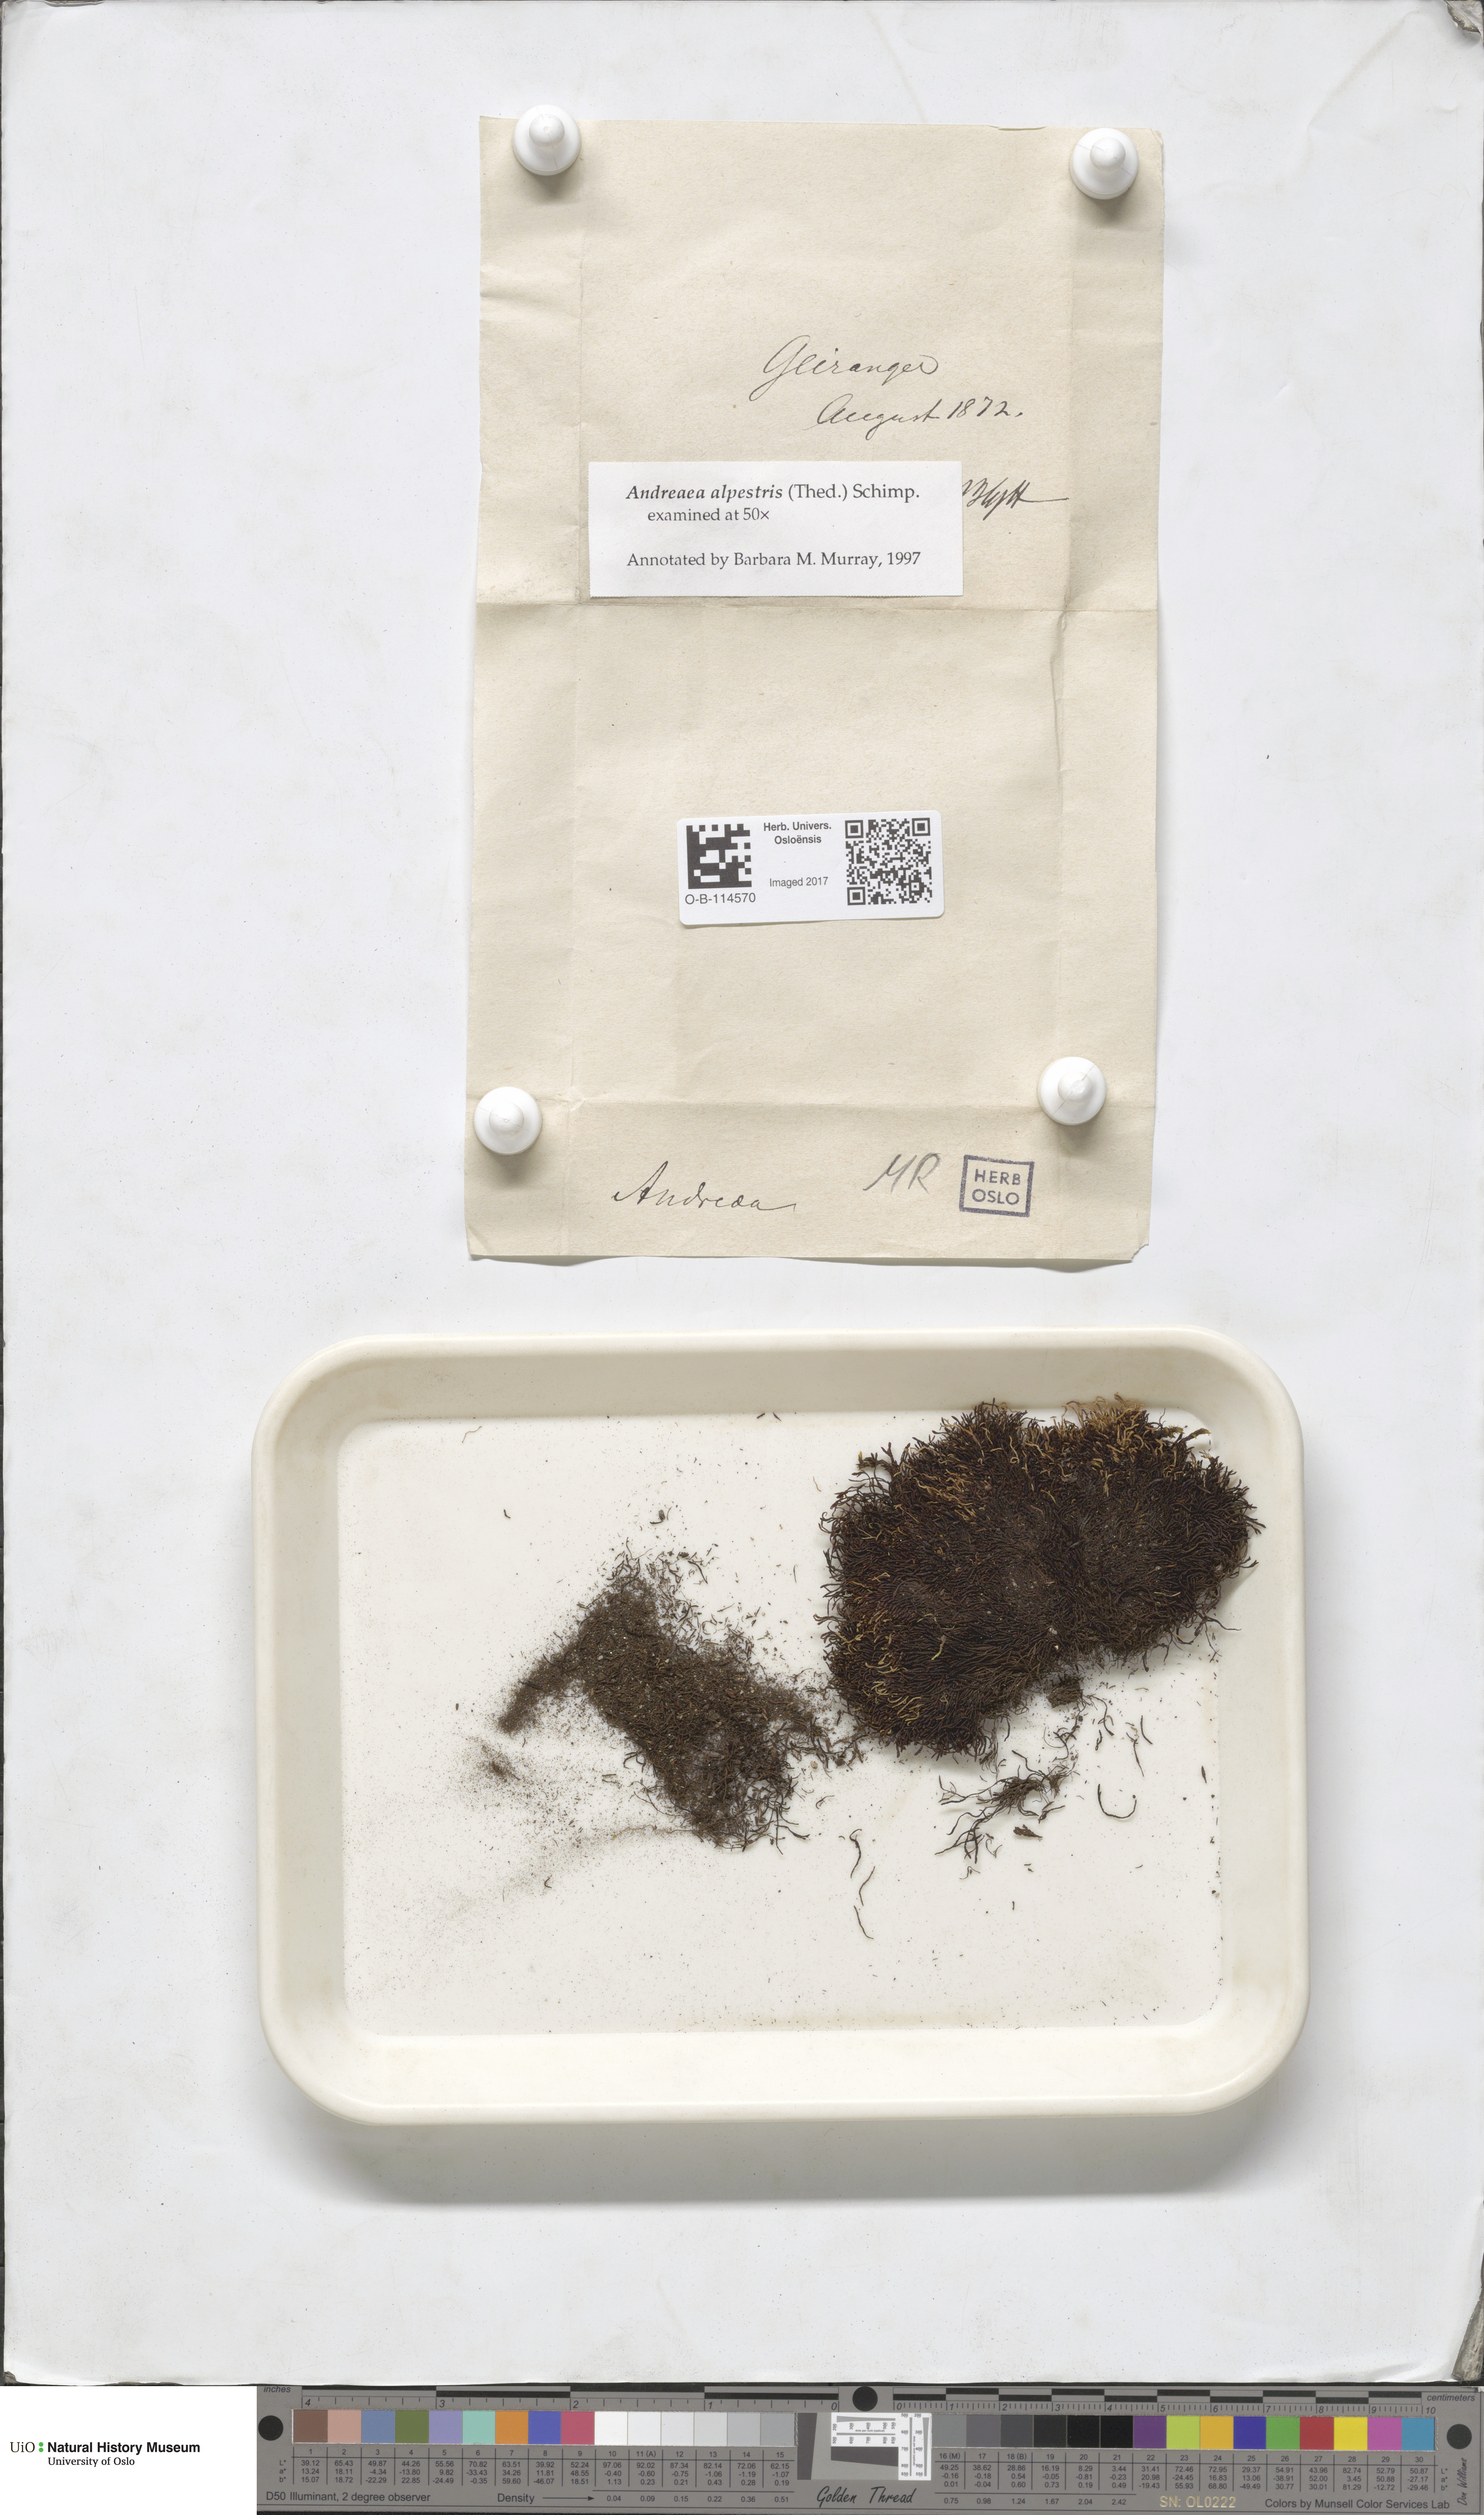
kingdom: Plantae
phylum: Bryophyta
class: Andreaeopsida
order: Andreaeales
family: Andreaeaceae
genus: Andreaea
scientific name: Andreaea alpestris
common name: Slender rock-moss
